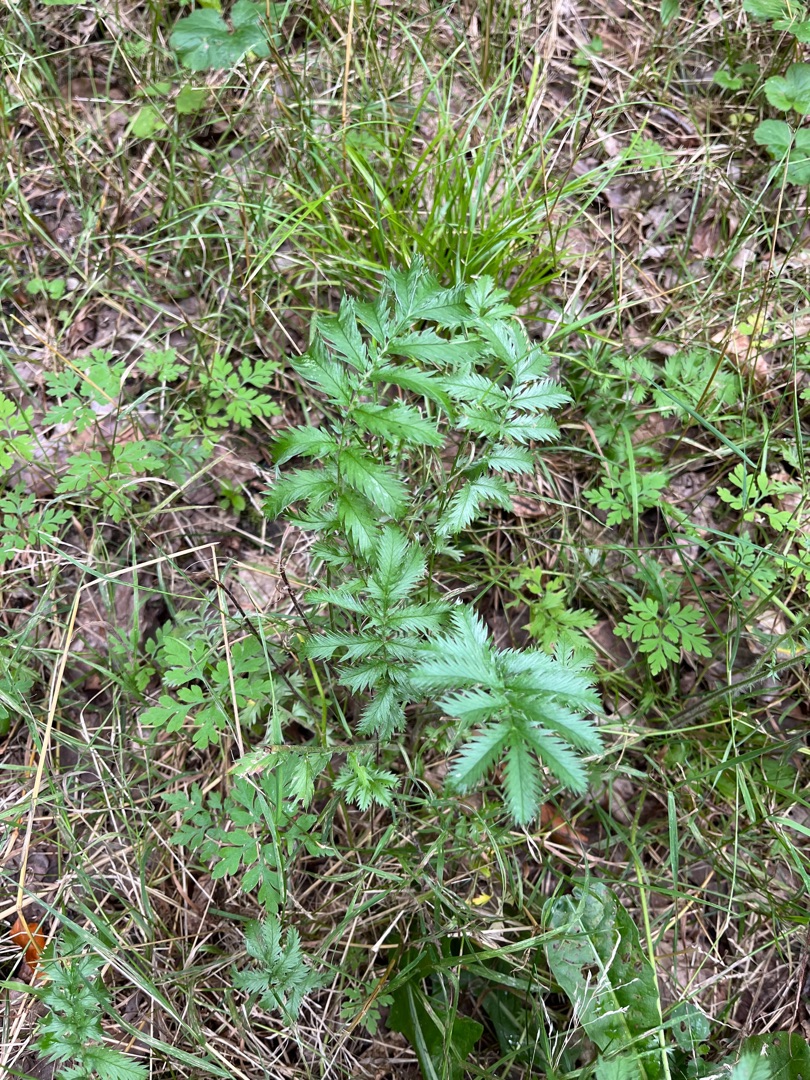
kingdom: Plantae
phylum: Tracheophyta
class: Magnoliopsida
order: Rosales
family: Rosaceae
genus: Argentina
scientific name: Argentina anserina
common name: Gåsepotentil
